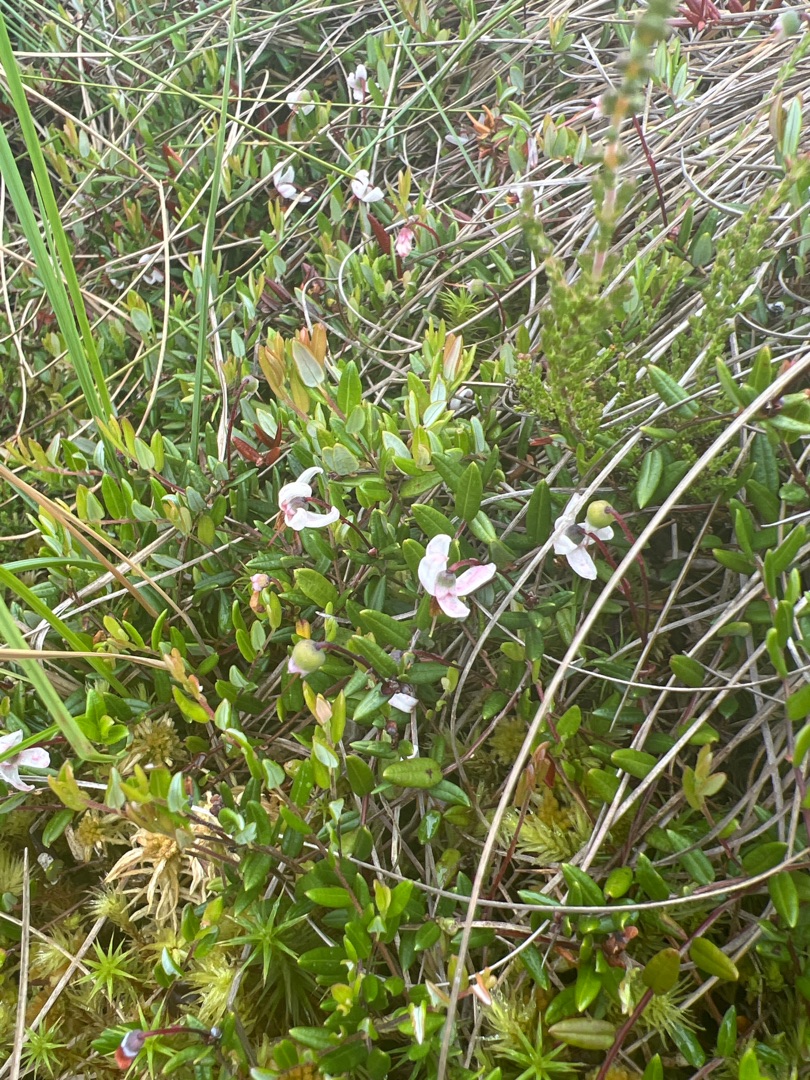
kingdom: Plantae
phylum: Tracheophyta
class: Magnoliopsida
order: Ericales
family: Ericaceae
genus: Vaccinium
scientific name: Vaccinium oxycoccos
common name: Tranebær
